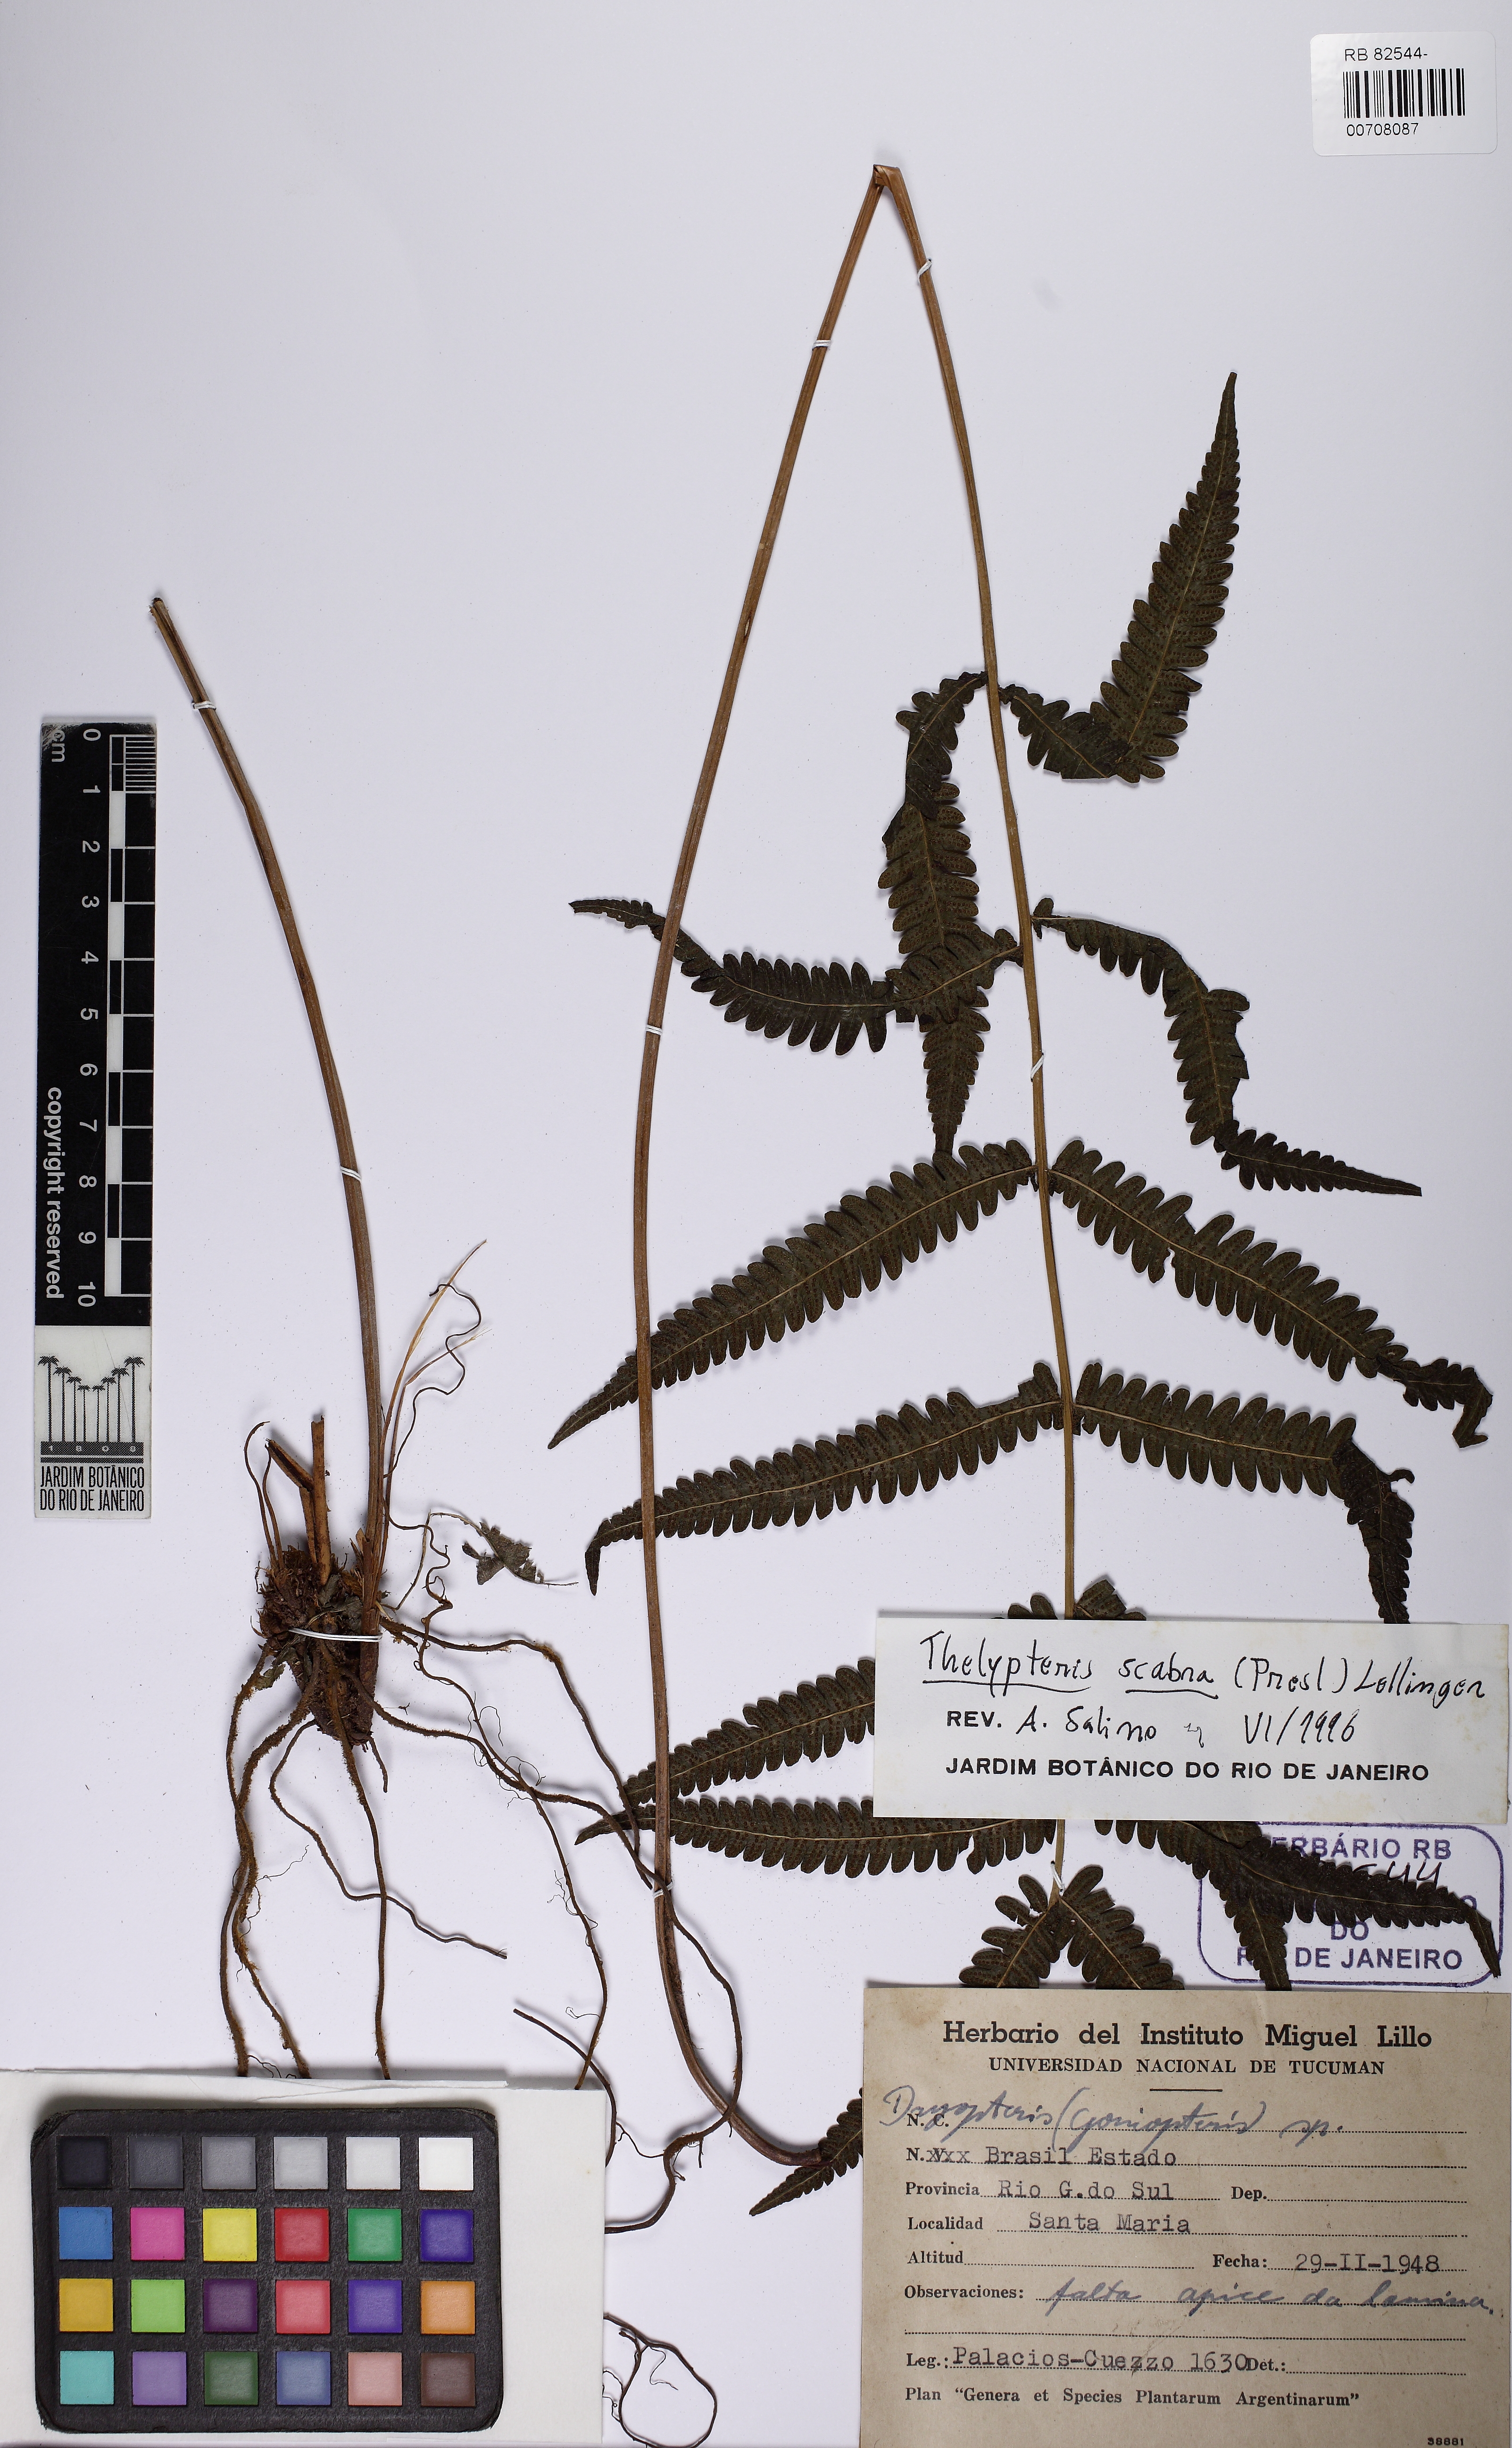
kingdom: Plantae
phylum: Tracheophyta
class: Polypodiopsida
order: Polypodiales
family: Thelypteridaceae
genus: Goniopteris
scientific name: Goniopteris scabra
